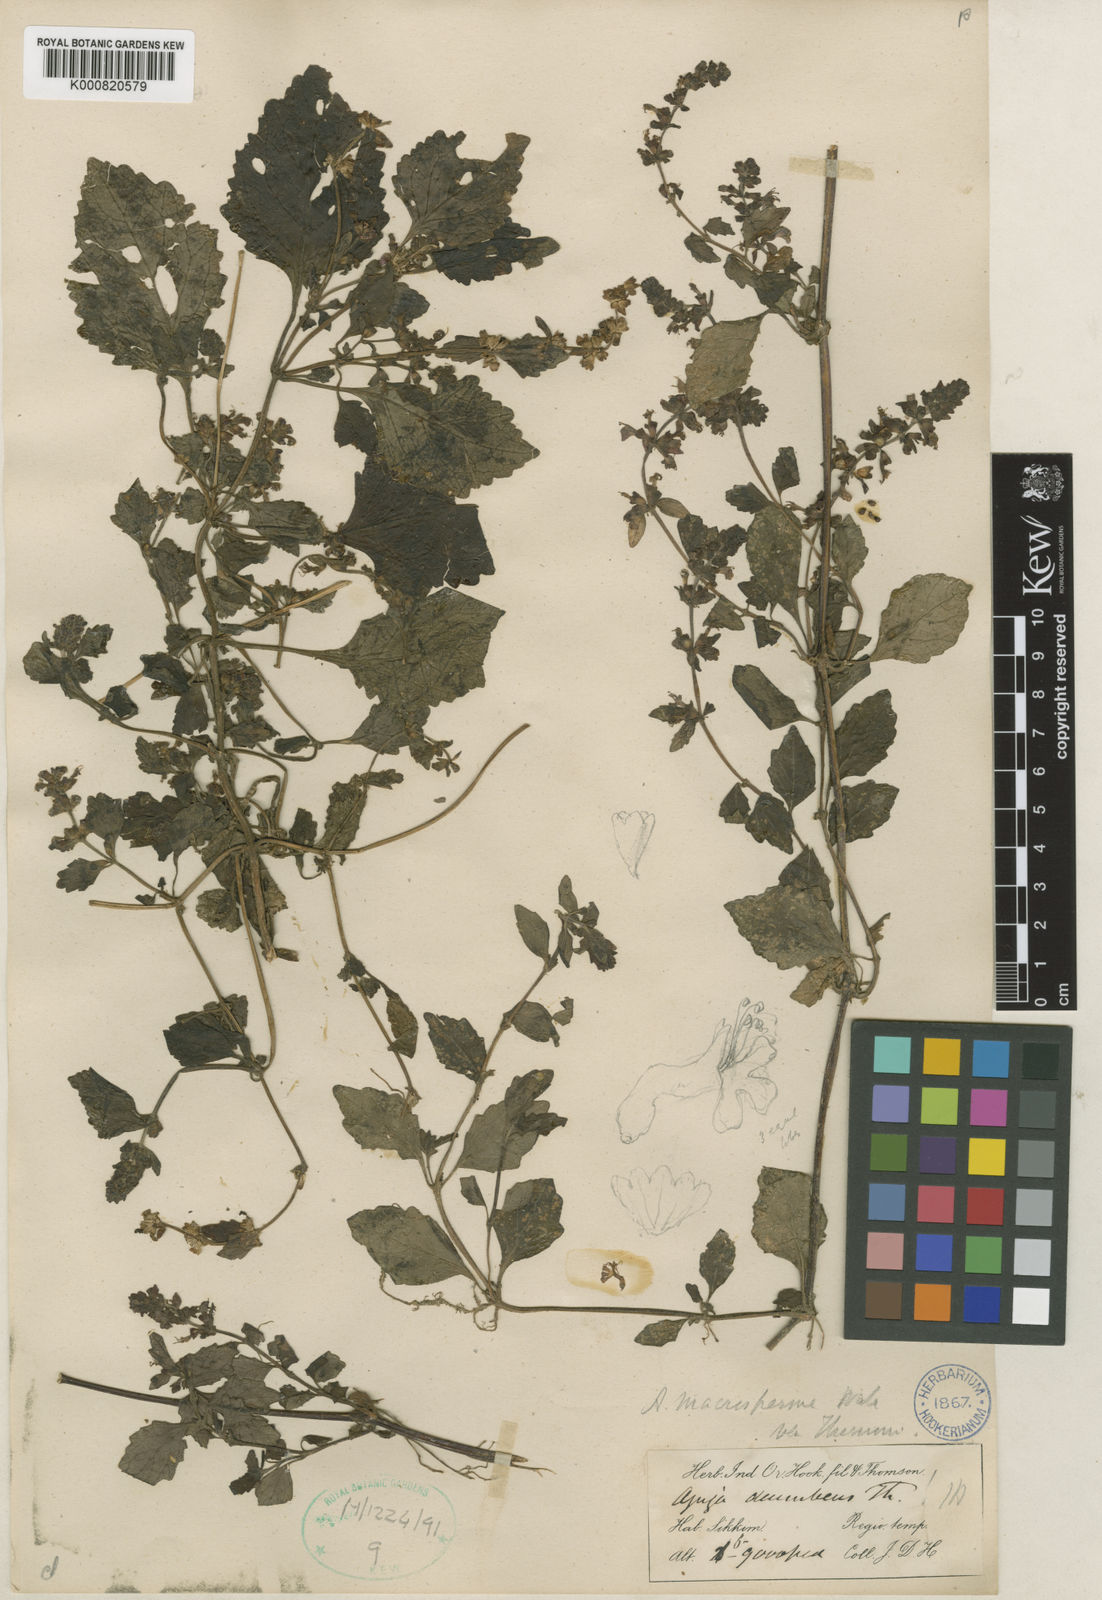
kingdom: Plantae
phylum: Tracheophyta
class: Magnoliopsida
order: Lamiales
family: Lamiaceae
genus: Ajuga
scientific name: Ajuga macrosperma
